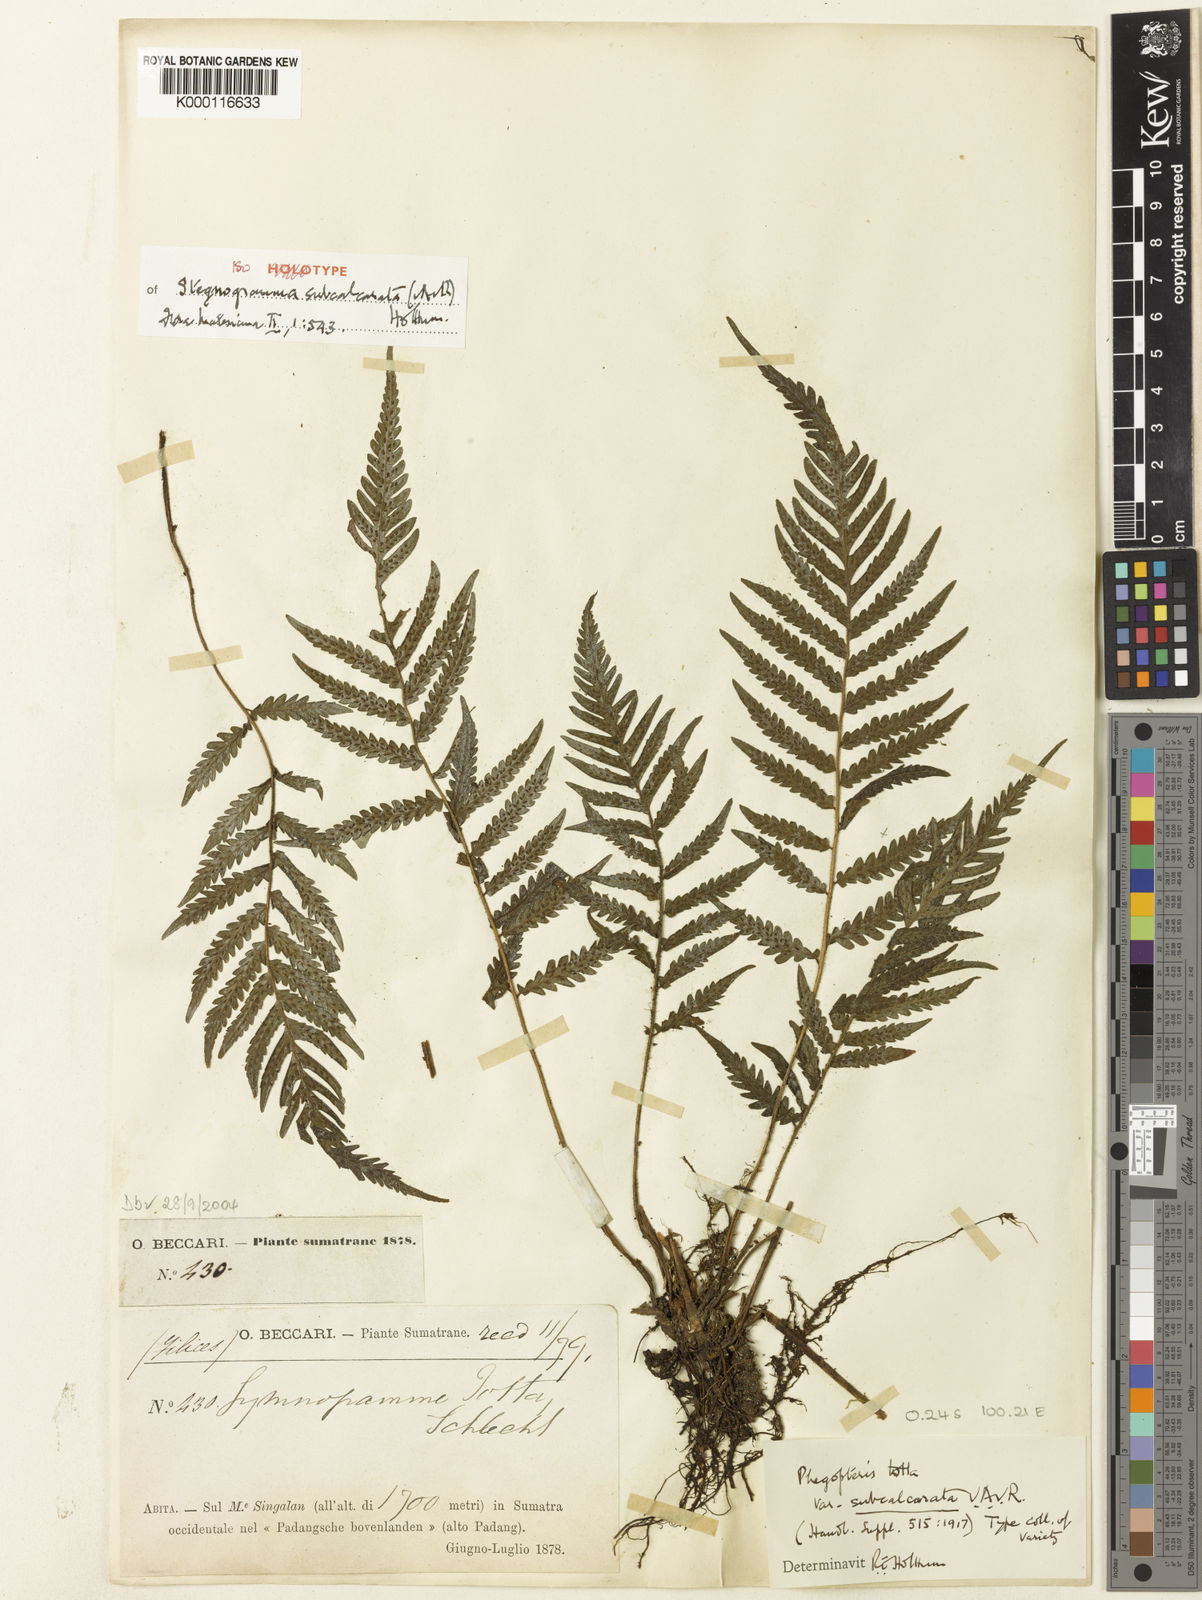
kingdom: Plantae
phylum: Tracheophyta
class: Polypodiopsida
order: Polypodiales
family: Thelypteridaceae
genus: Leptogramma
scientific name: Leptogramma petiolata
